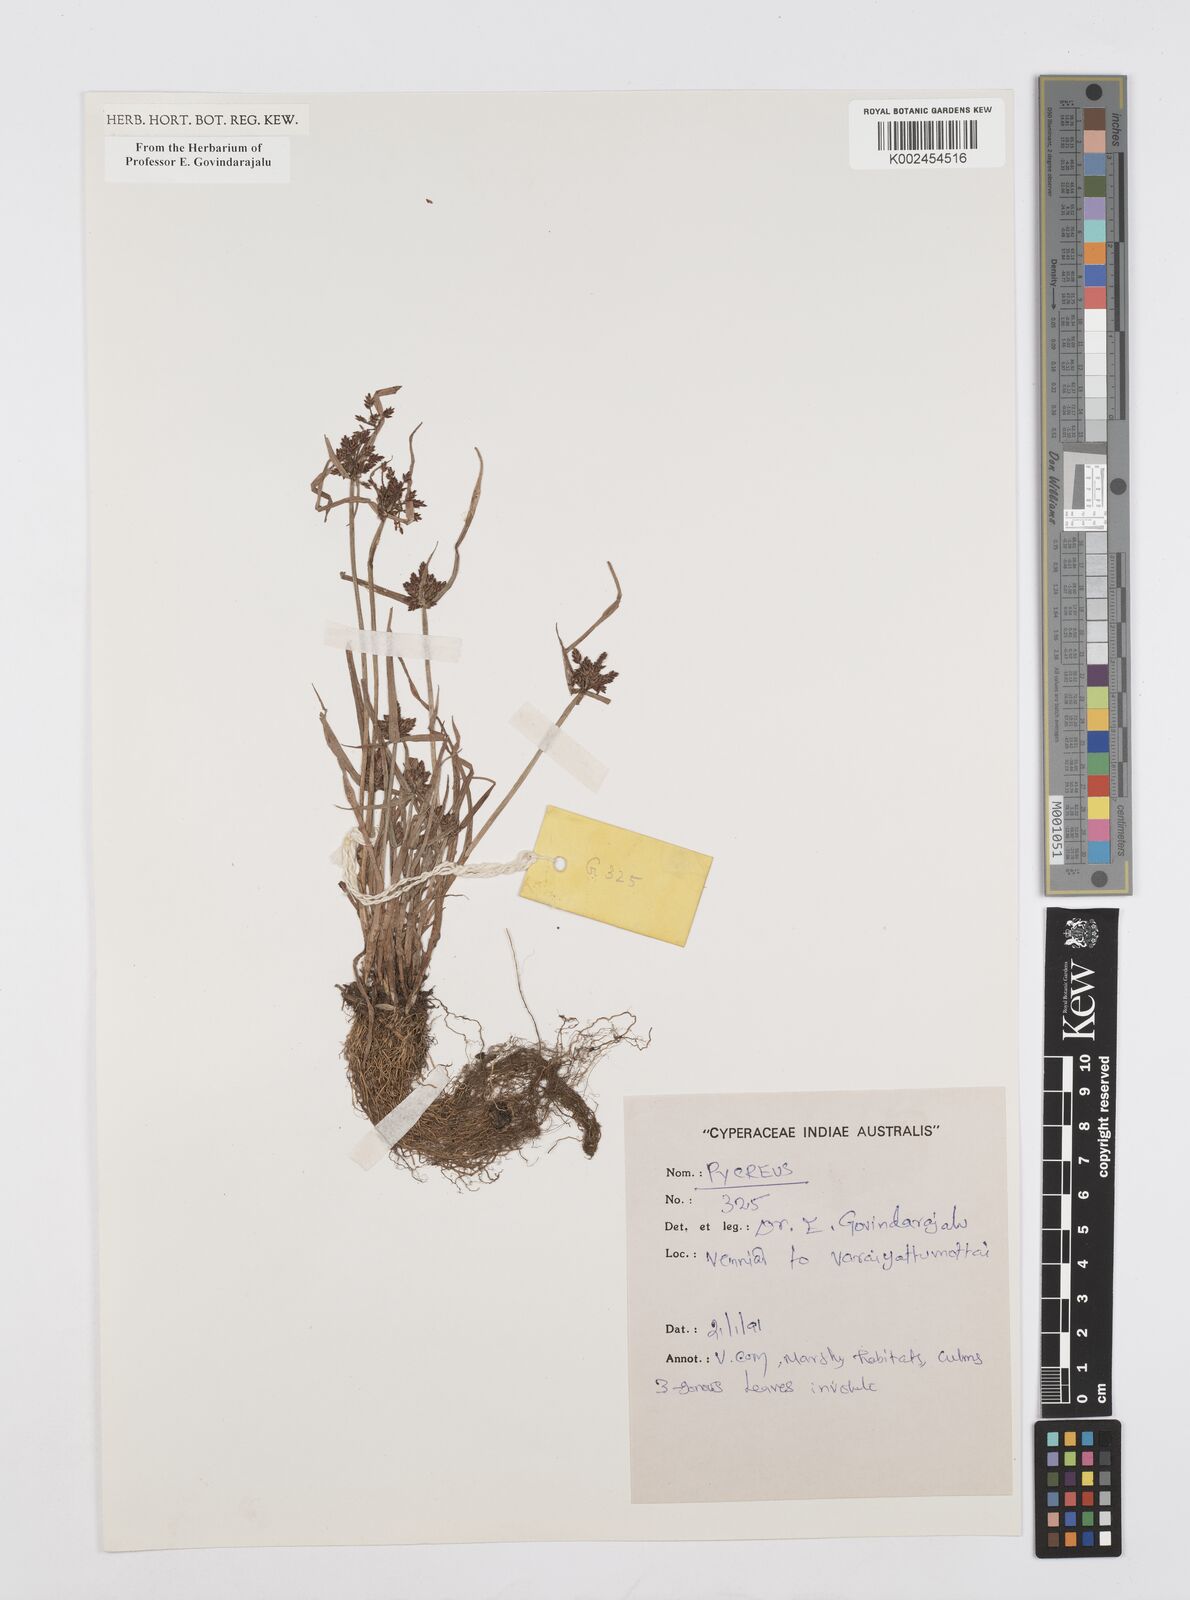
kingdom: Plantae
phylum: Tracheophyta
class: Liliopsida
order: Poales
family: Cyperaceae
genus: Cyperus
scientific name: Cyperus
